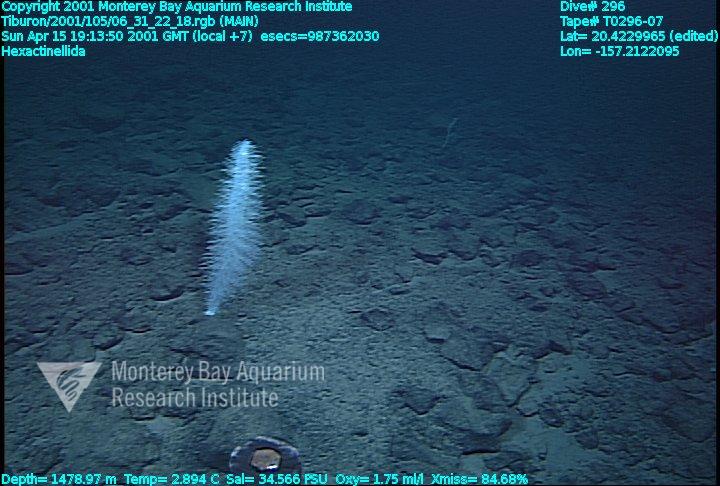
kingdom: Animalia
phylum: Porifera
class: Hexactinellida
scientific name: Hexactinellida
